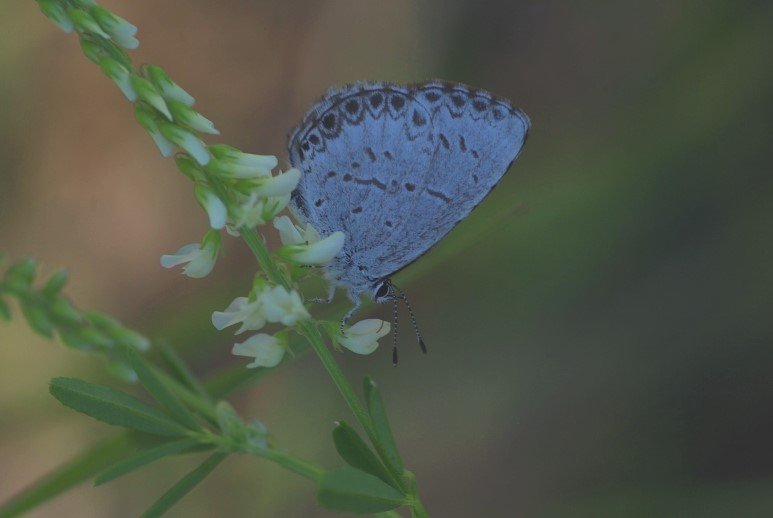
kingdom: Animalia
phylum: Arthropoda
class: Insecta
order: Lepidoptera
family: Lycaenidae
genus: Celastrina
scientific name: Celastrina
